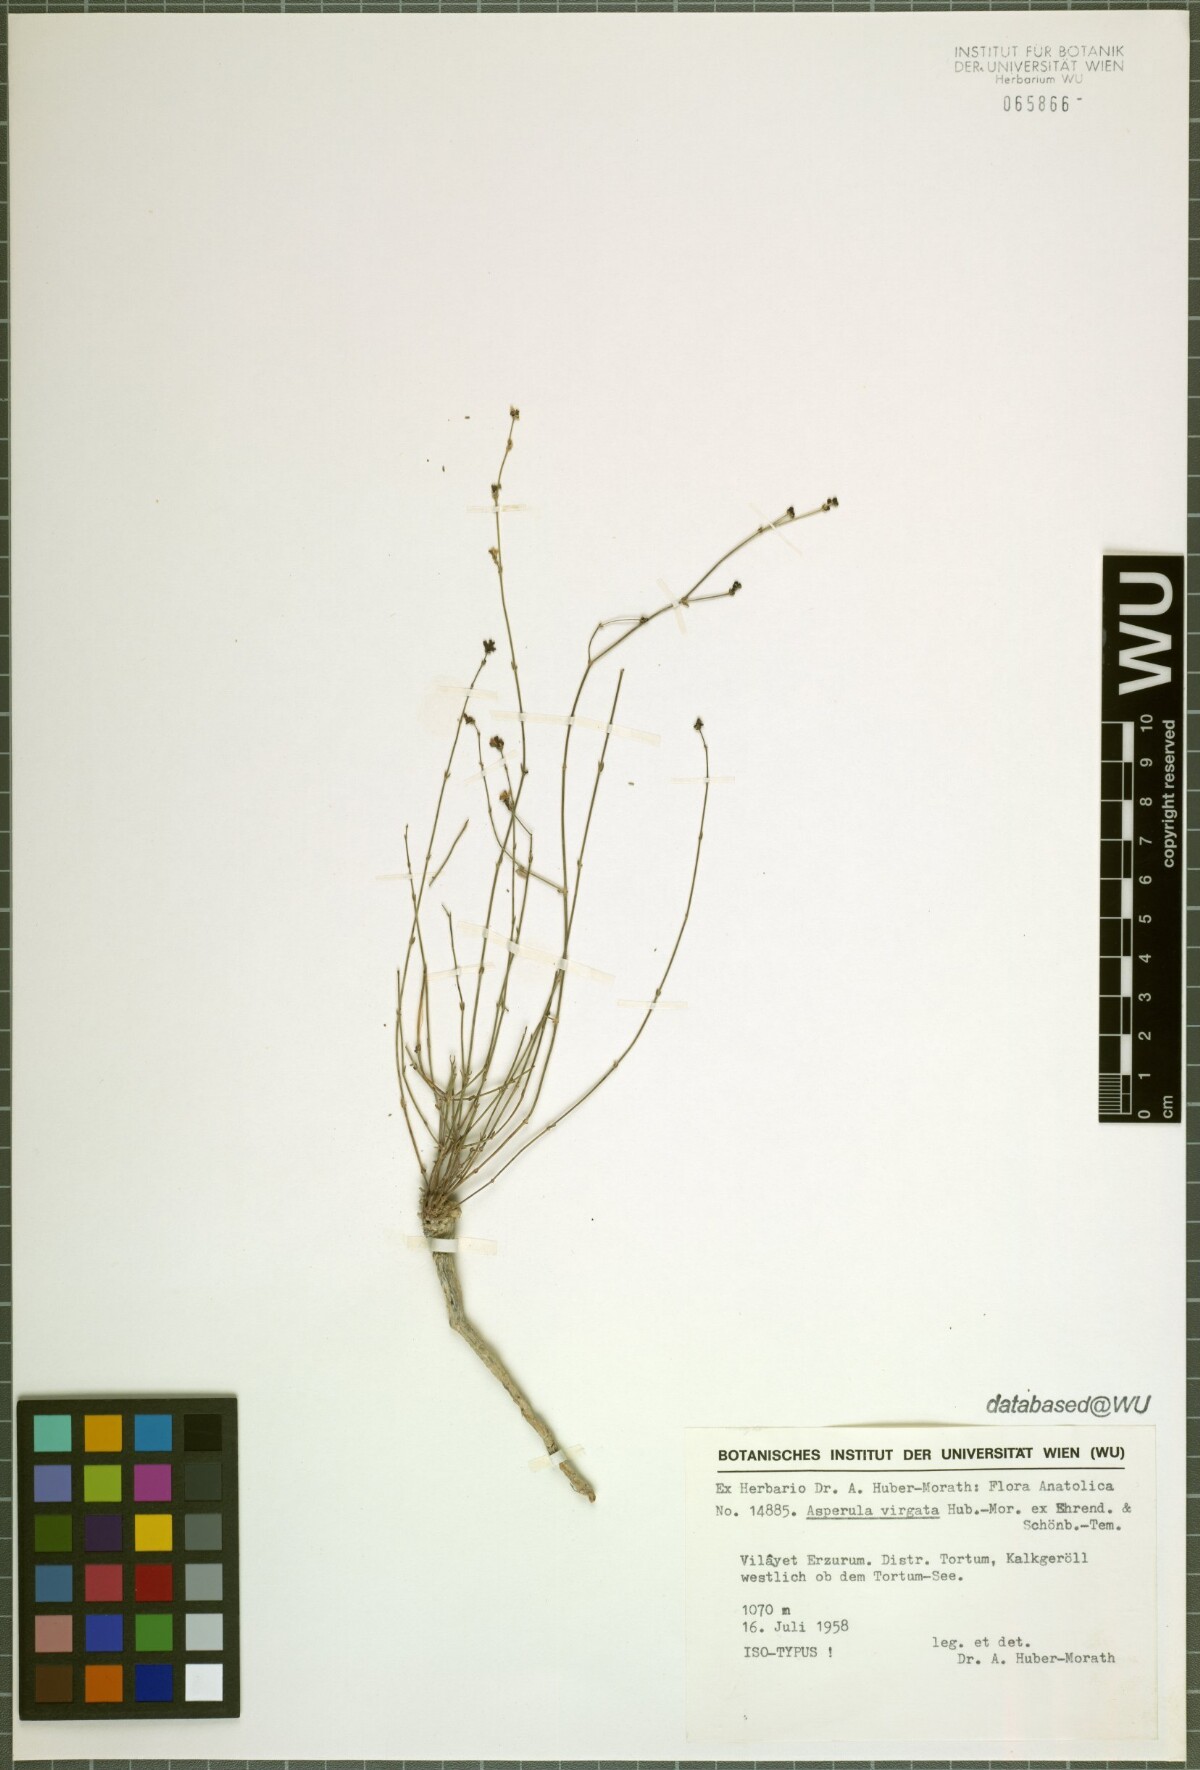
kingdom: Plantae
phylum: Tracheophyta
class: Magnoliopsida
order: Gentianales
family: Rubiaceae
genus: Asperula
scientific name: Asperula virgata
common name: Rod-shaped woodruff
